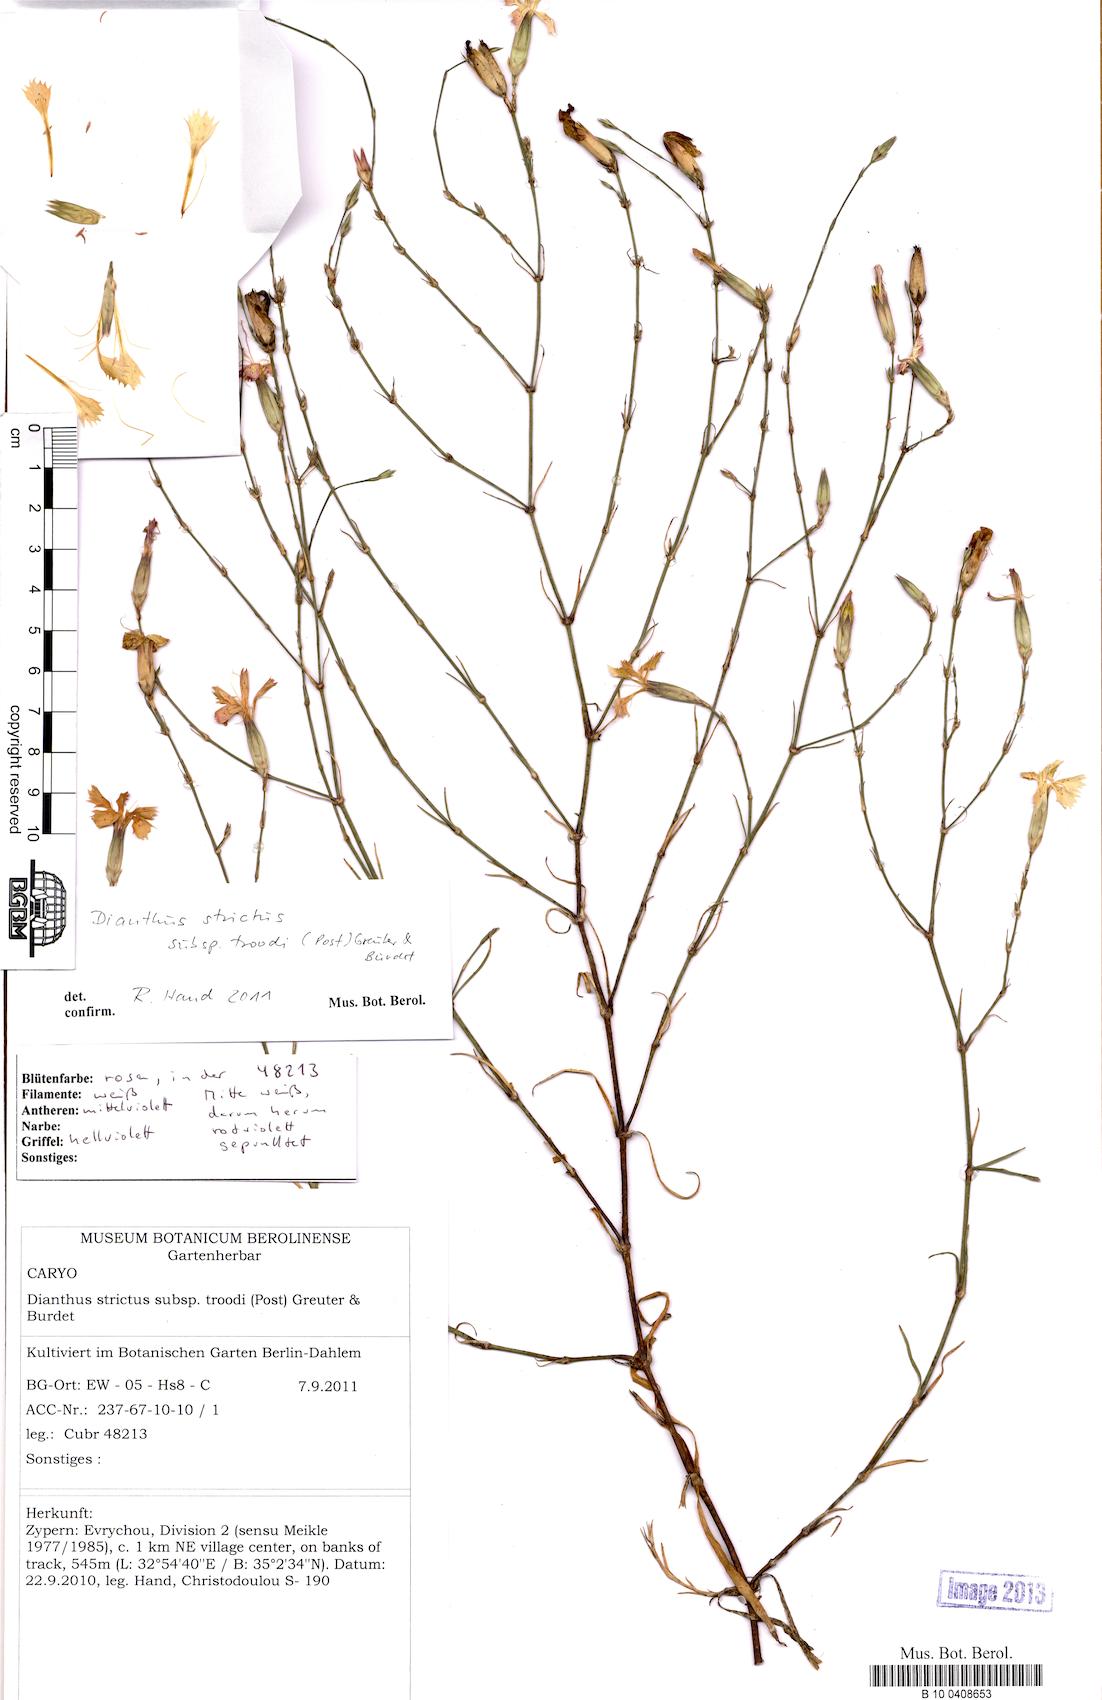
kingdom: Plantae
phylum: Tracheophyta
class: Magnoliopsida
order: Caryophyllales
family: Caryophyllaceae
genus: Dianthus
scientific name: Dianthus strictus
